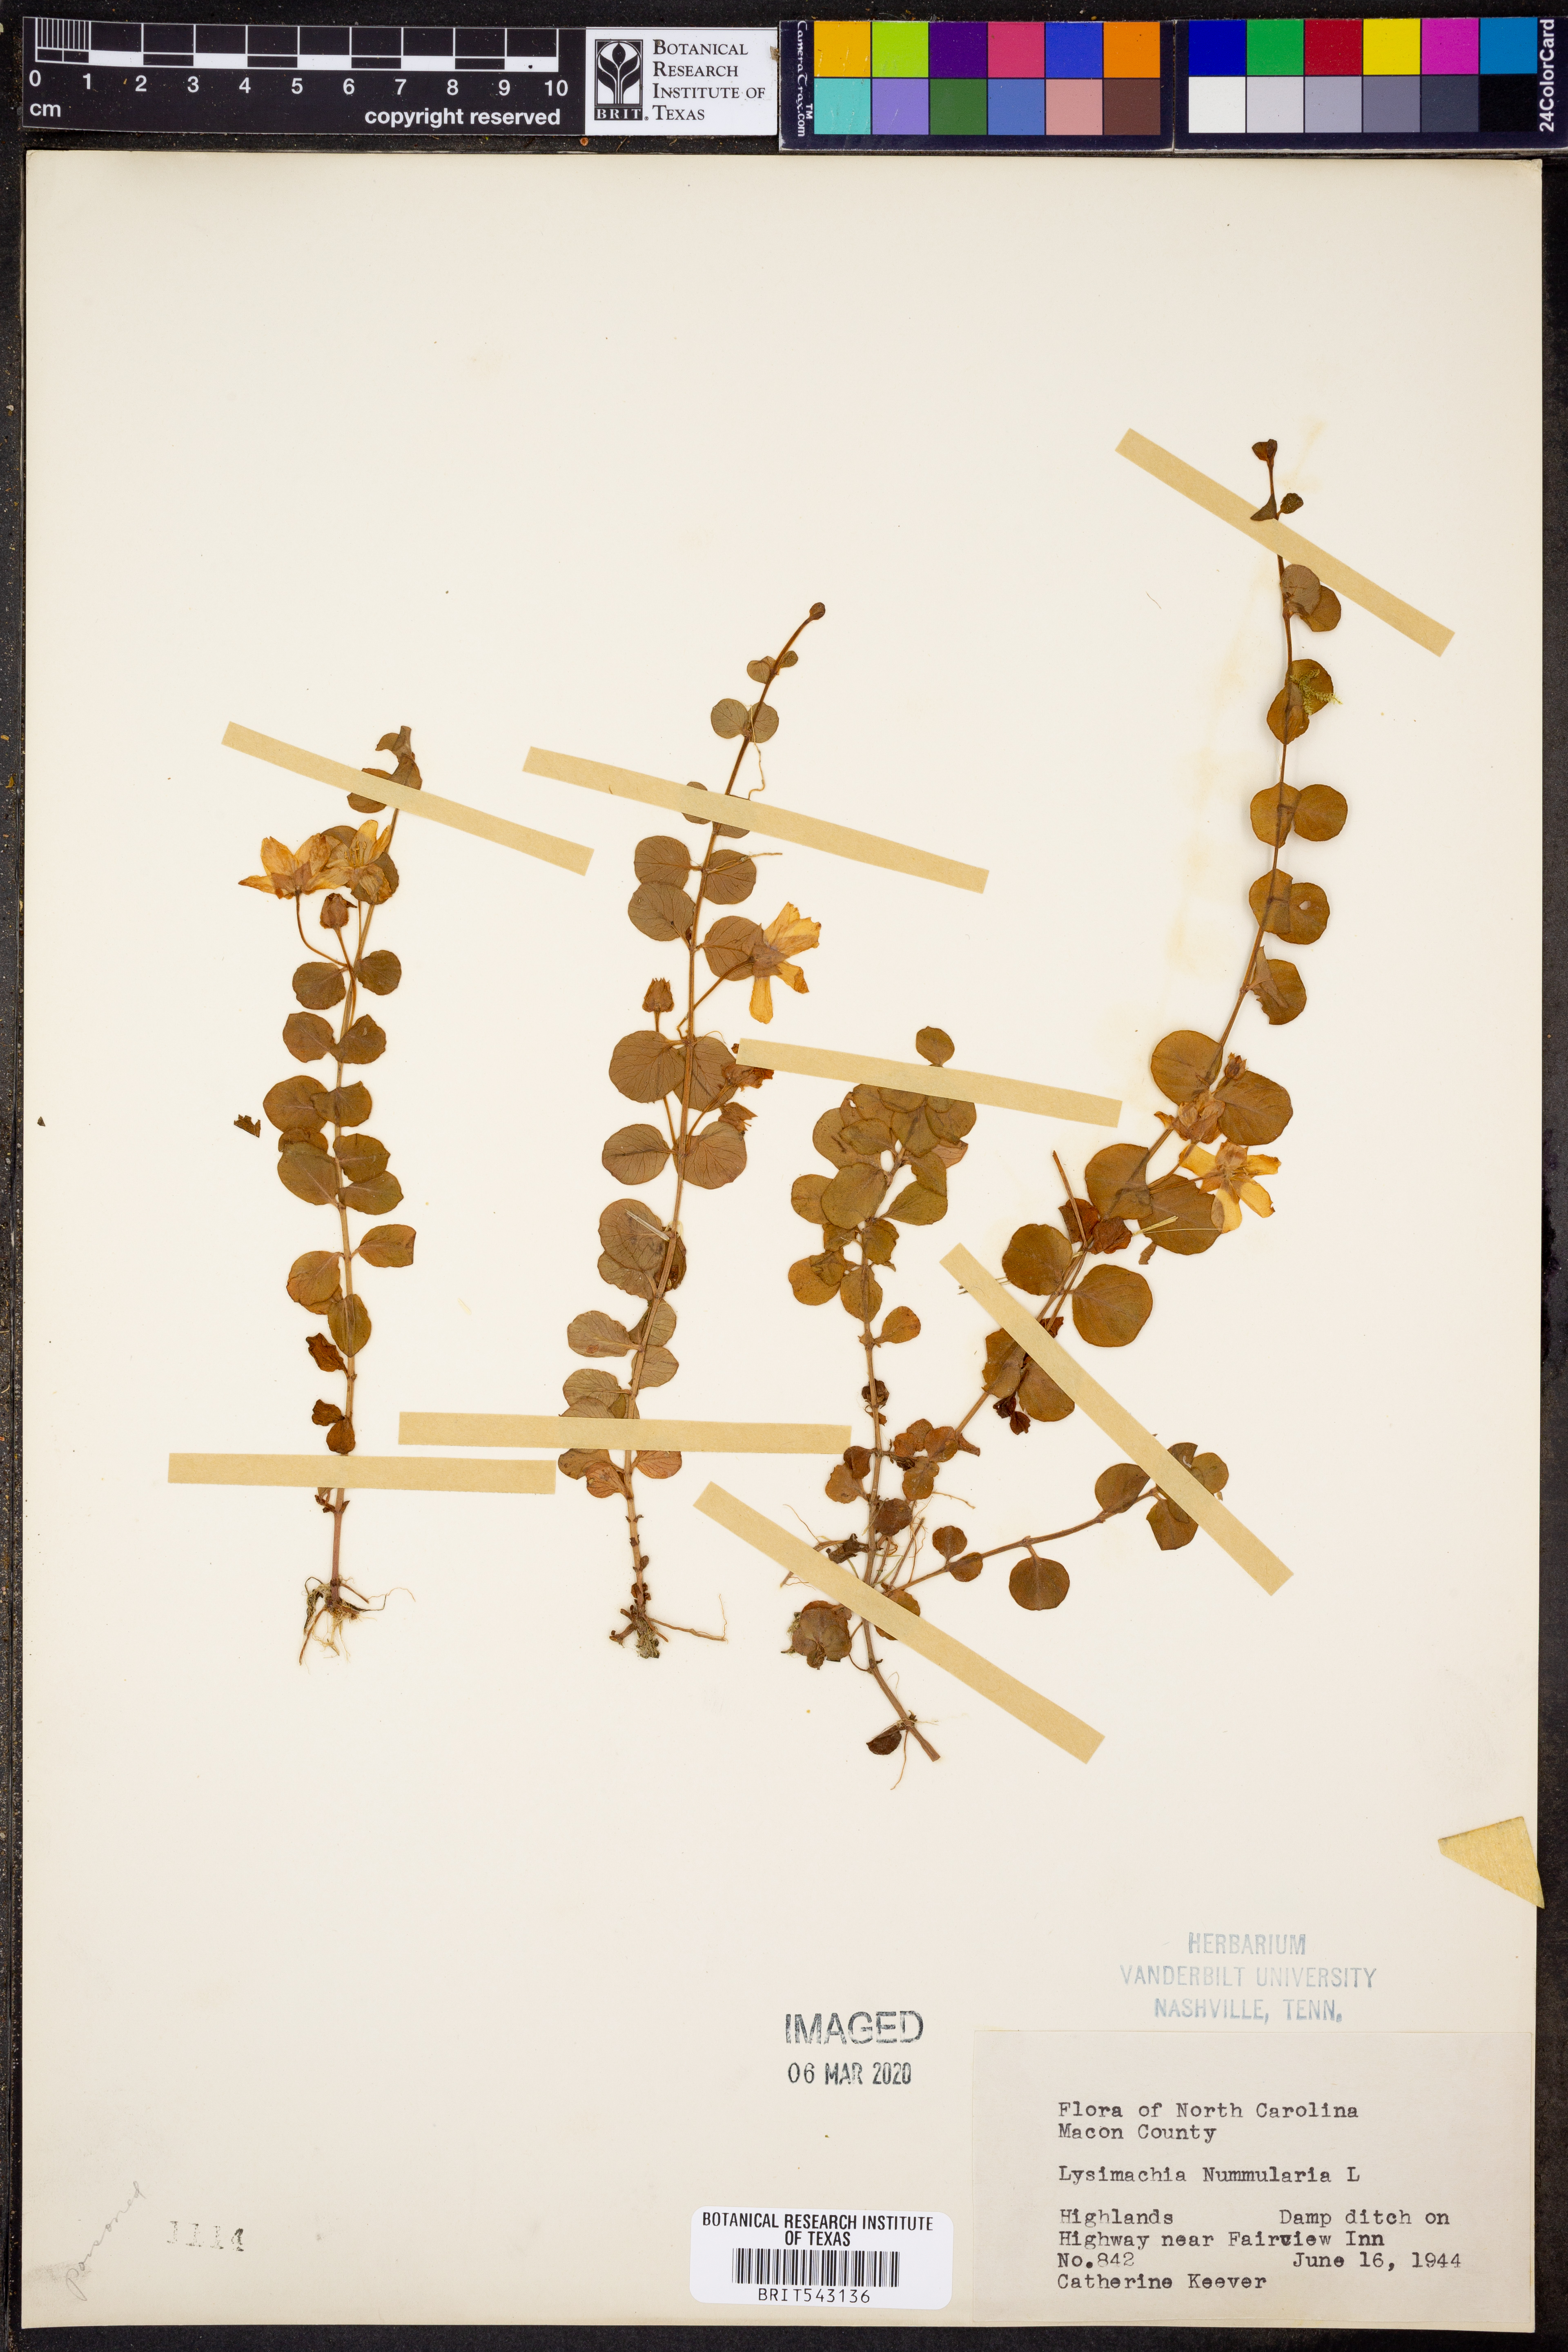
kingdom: Plantae
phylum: Tracheophyta
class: Magnoliopsida
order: Ericales
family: Primulaceae
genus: Lysimachia
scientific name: Lysimachia nummularia
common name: Moneywort
